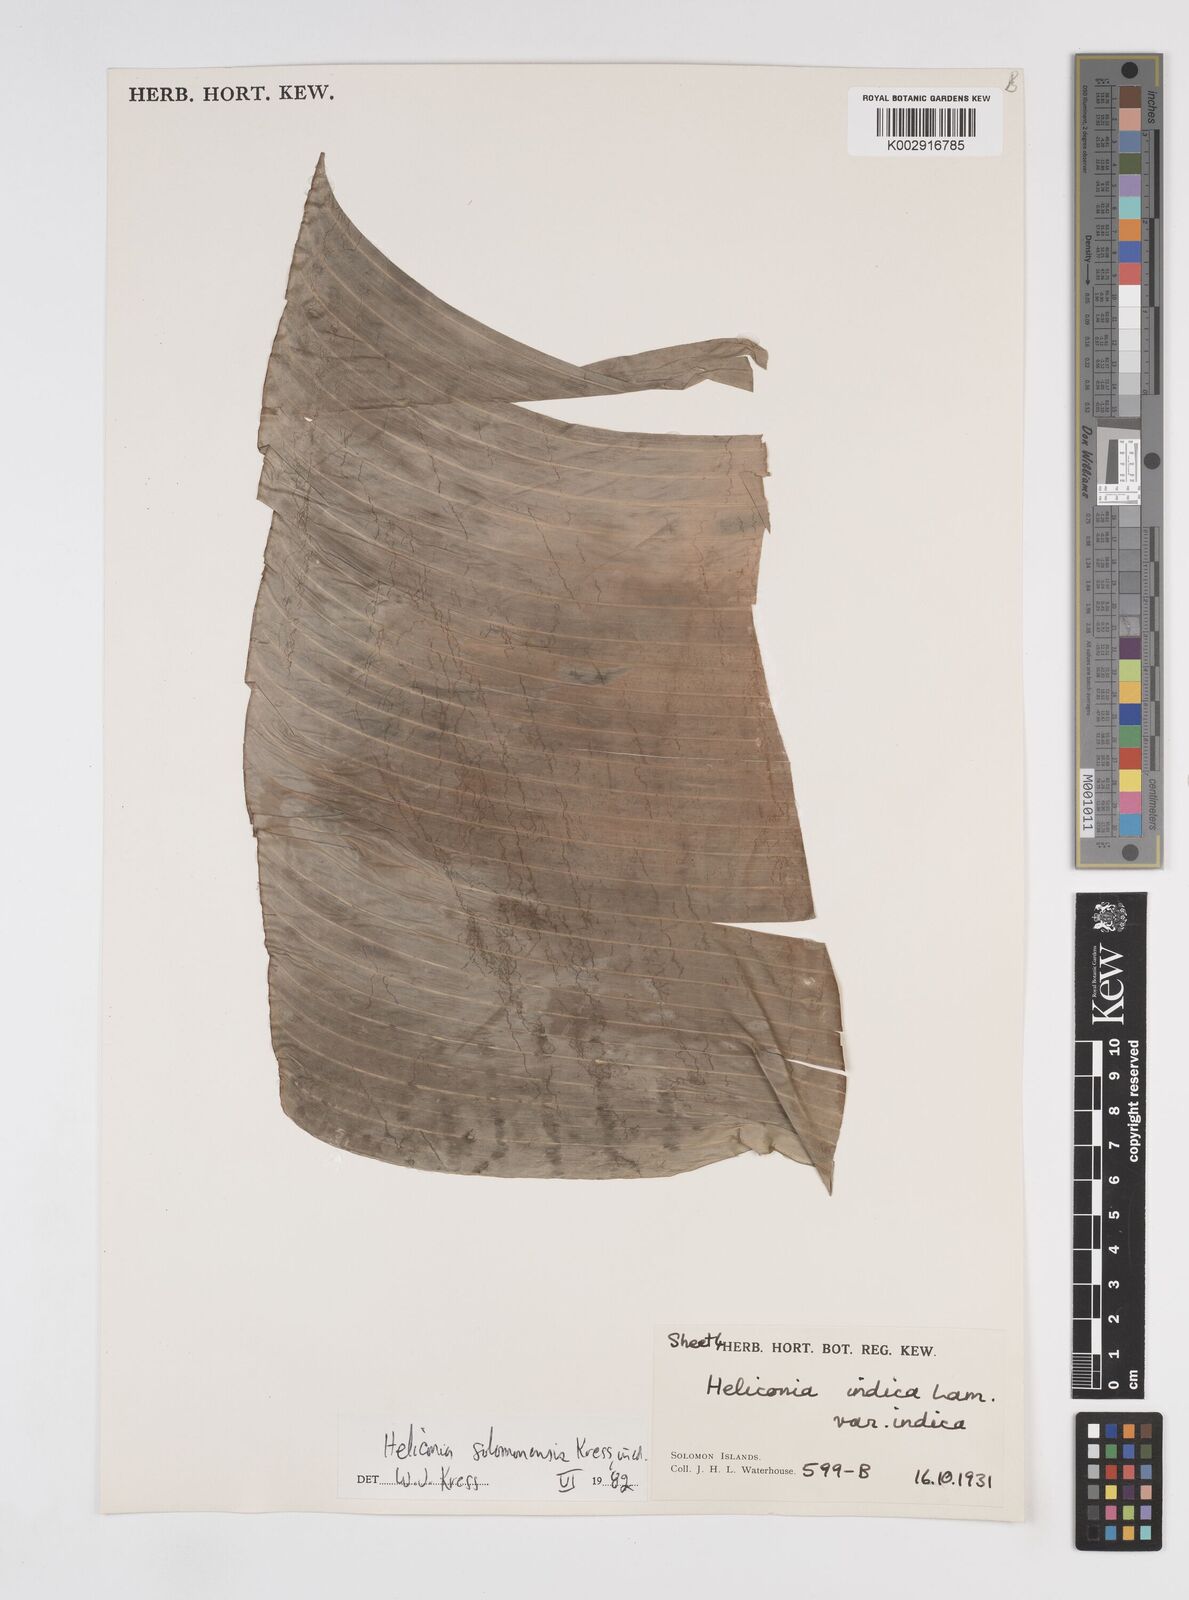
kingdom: Plantae
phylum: Tracheophyta
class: Liliopsida
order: Zingiberales
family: Heliconiaceae
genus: Heliconia
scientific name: Heliconia solomonensis
